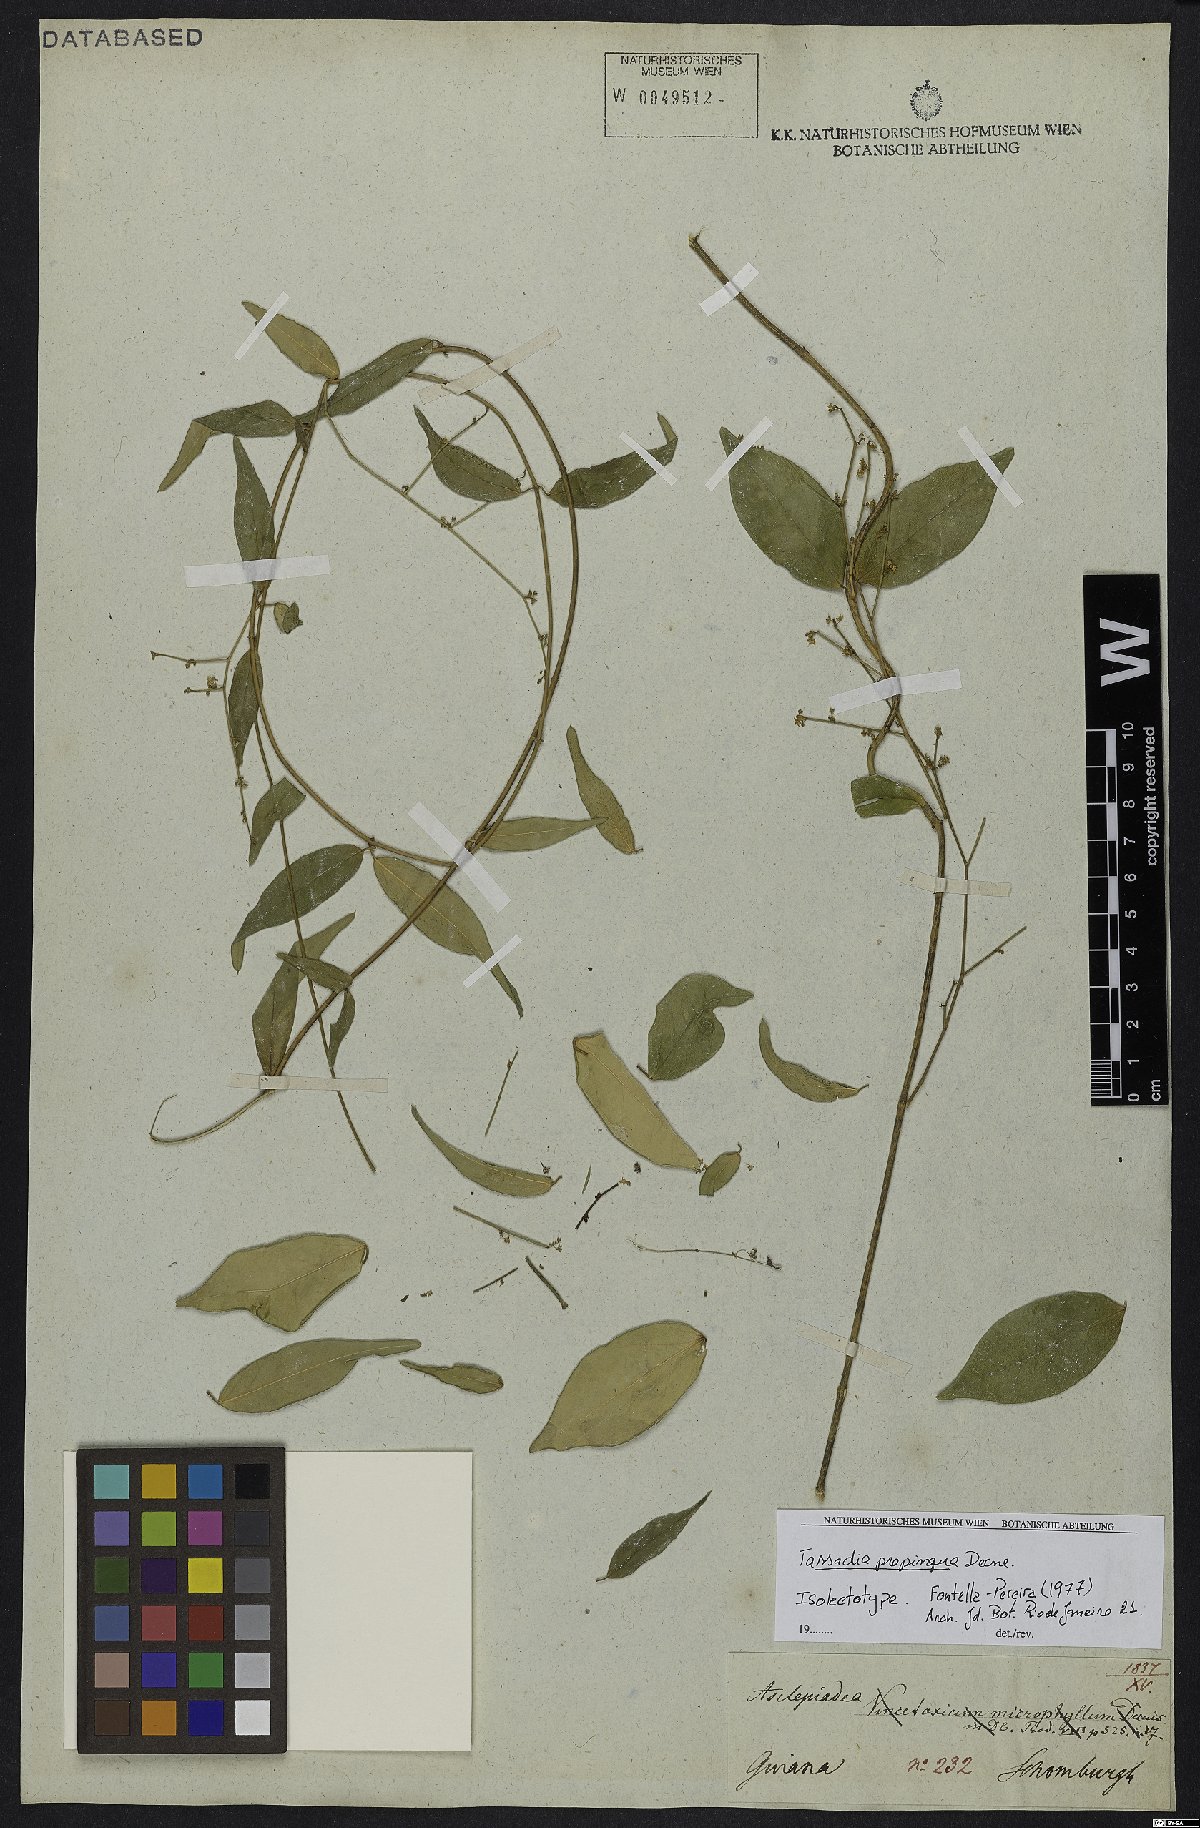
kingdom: Plantae
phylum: Tracheophyta
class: Magnoliopsida
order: Gentianales
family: Apocynaceae
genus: Tassadia
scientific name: Tassadia propinqua
